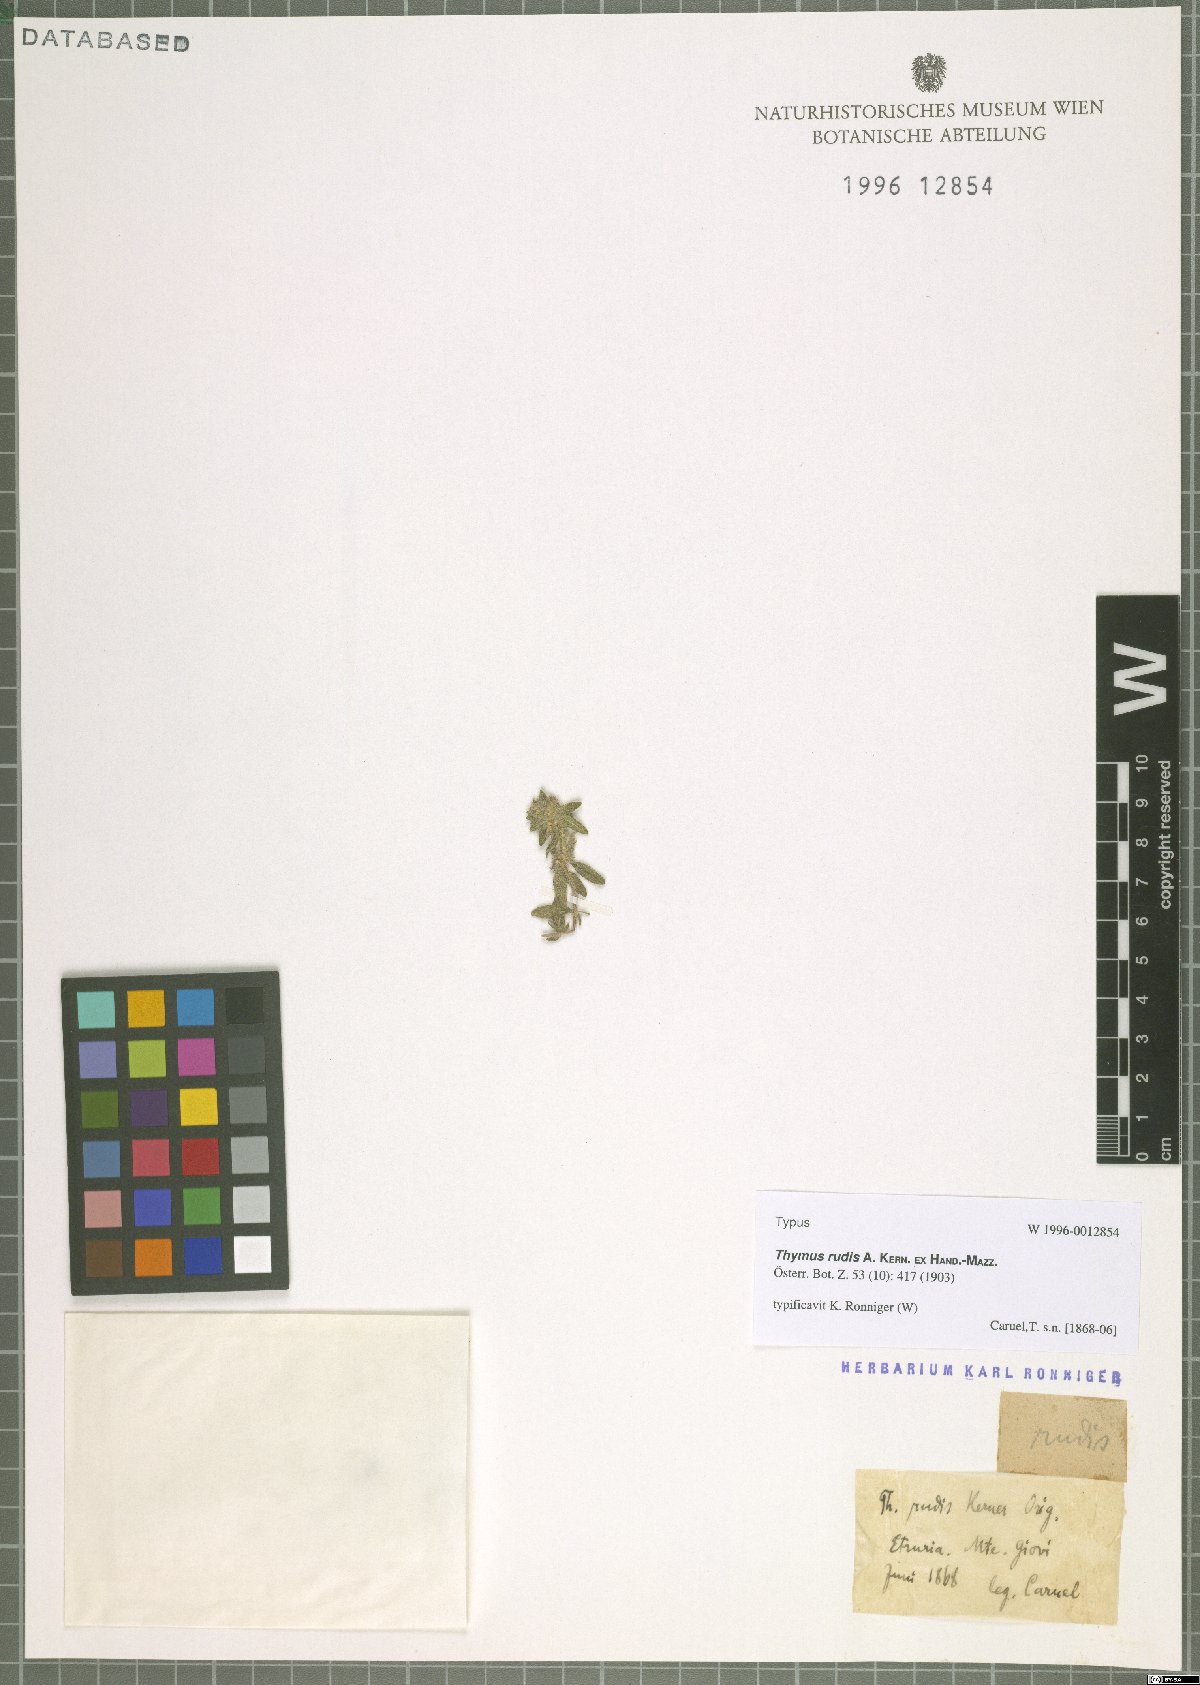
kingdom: Plantae
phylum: Tracheophyta
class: Magnoliopsida
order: Lamiales
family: Lamiaceae
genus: Thymus
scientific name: Thymus rudis
